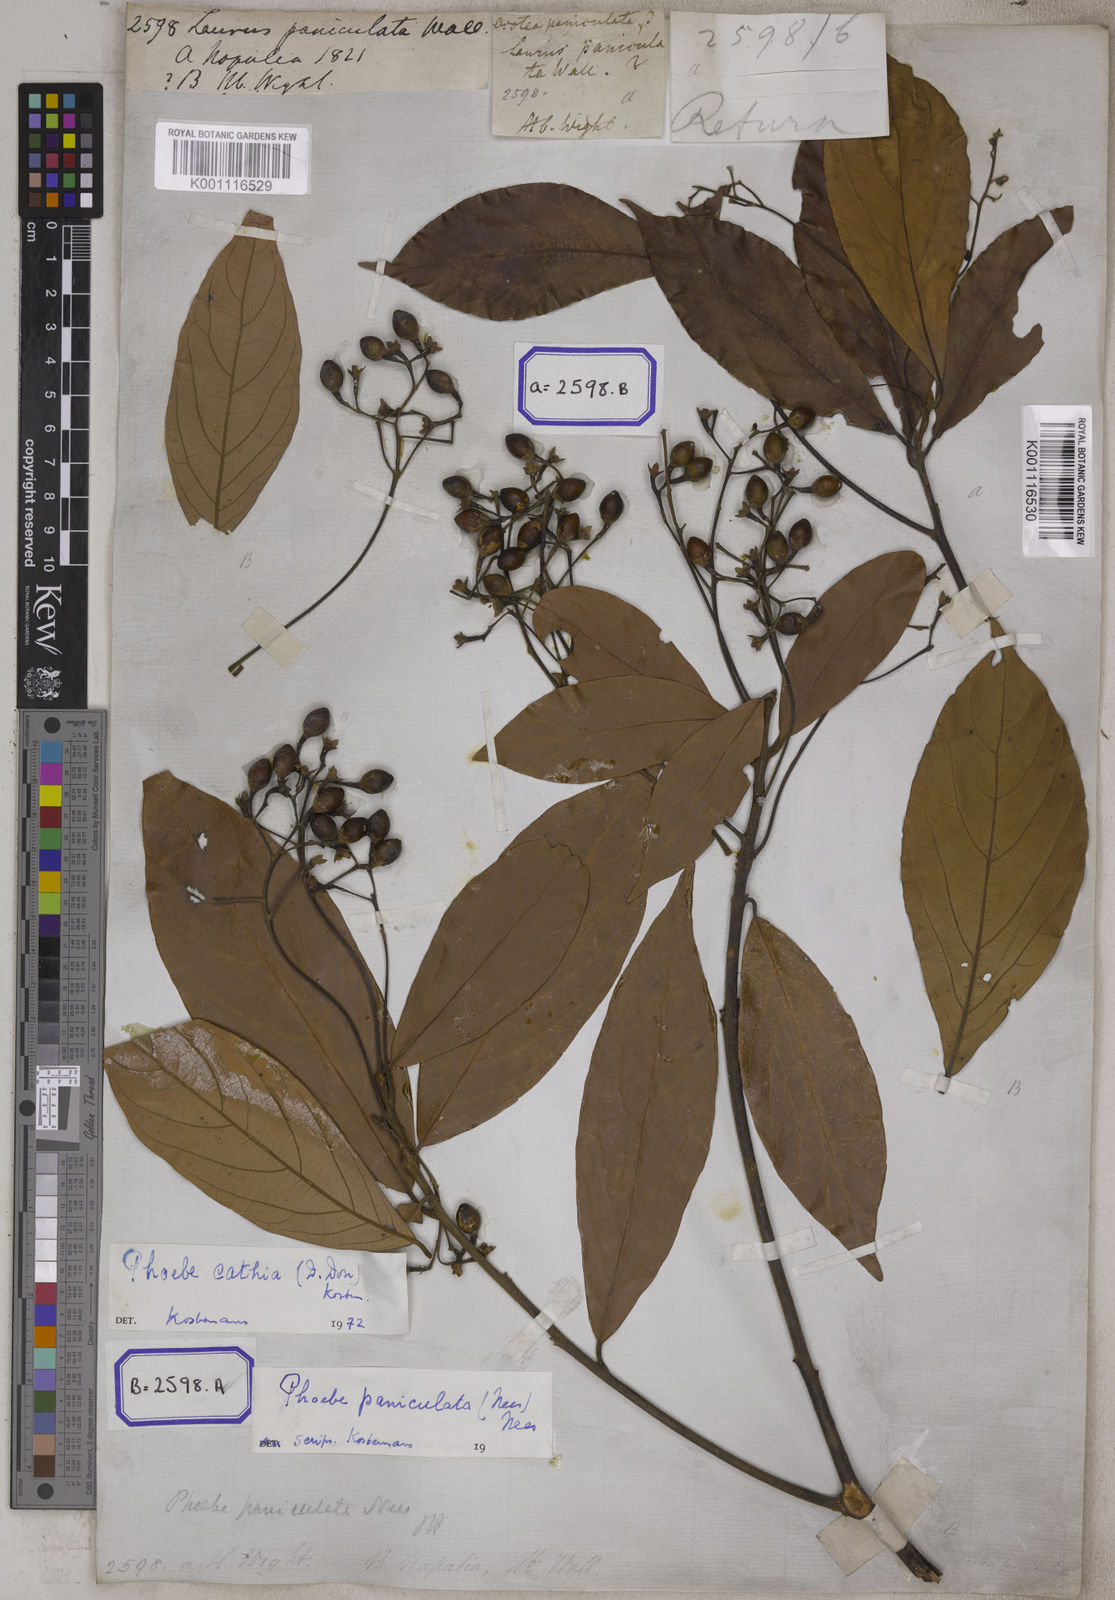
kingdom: Plantae
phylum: Tracheophyta
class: Magnoliopsida
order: Laurales
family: Lauraceae
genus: Phoebe
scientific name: Phoebe cathia
